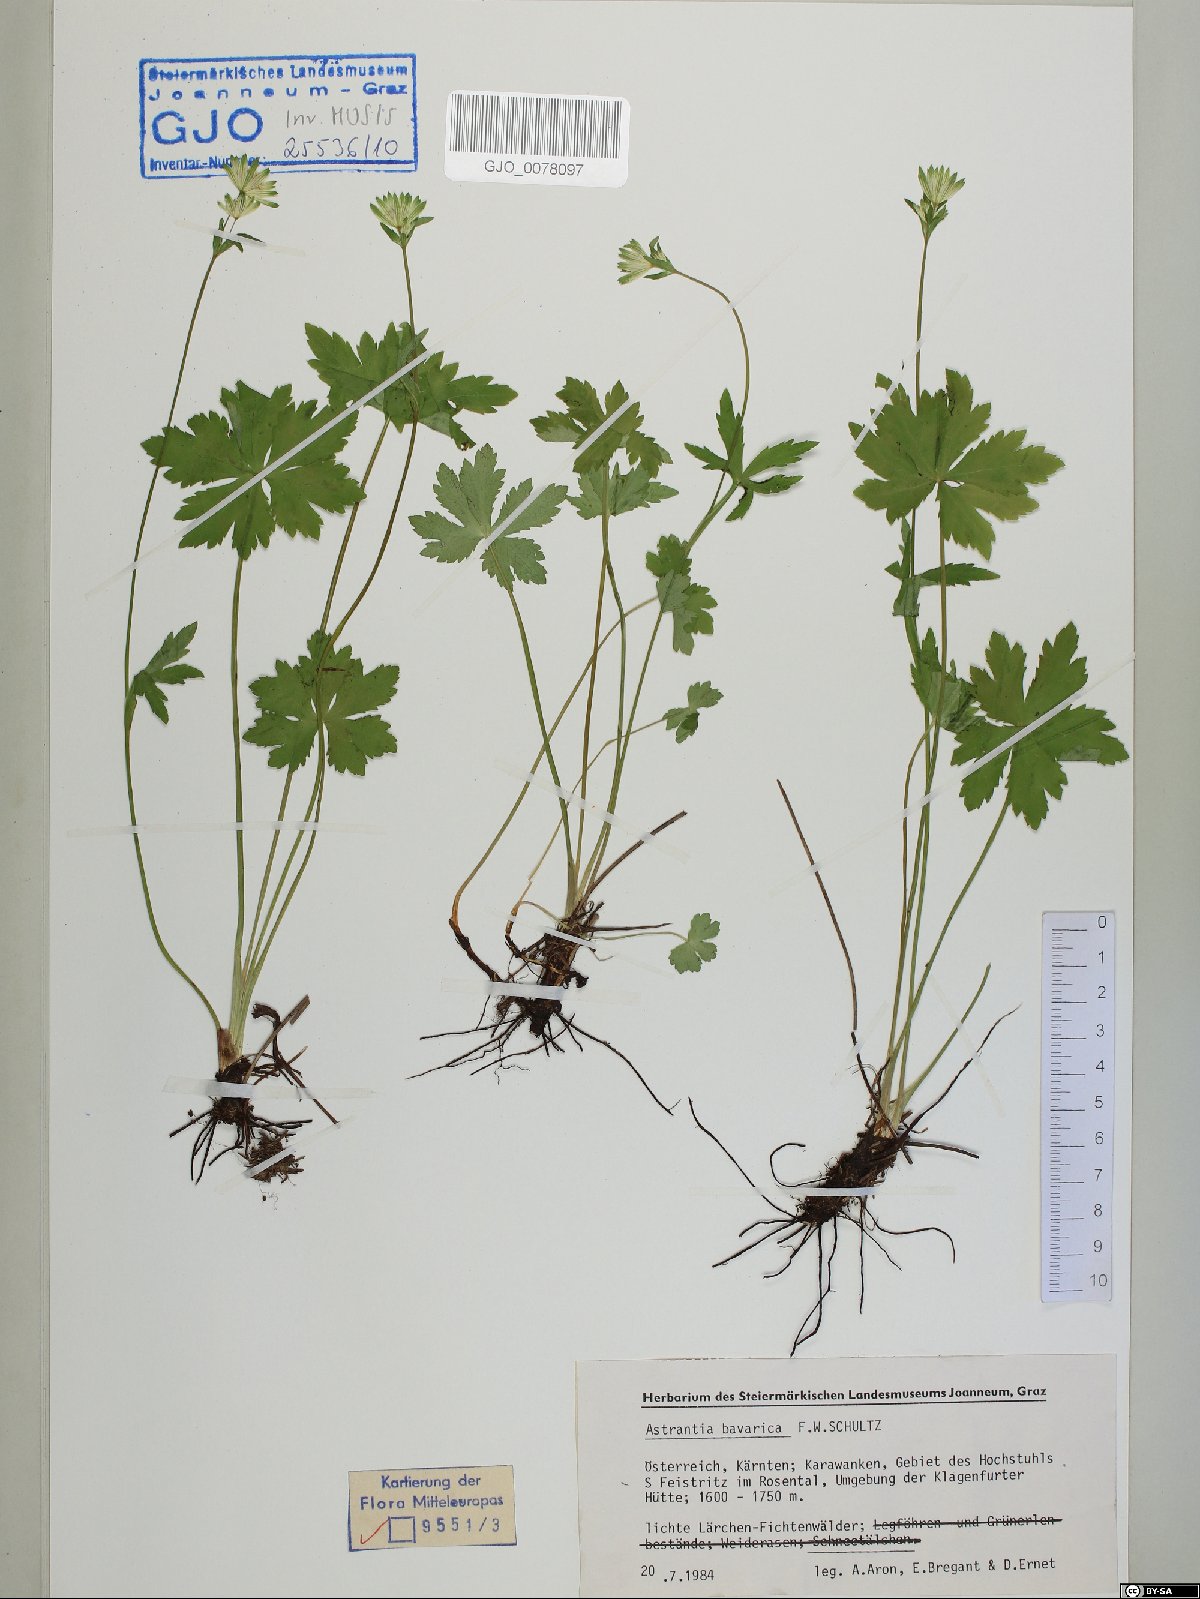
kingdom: Plantae
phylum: Tracheophyta
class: Magnoliopsida
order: Apiales
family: Apiaceae
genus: Astrantia
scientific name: Astrantia bavarica
